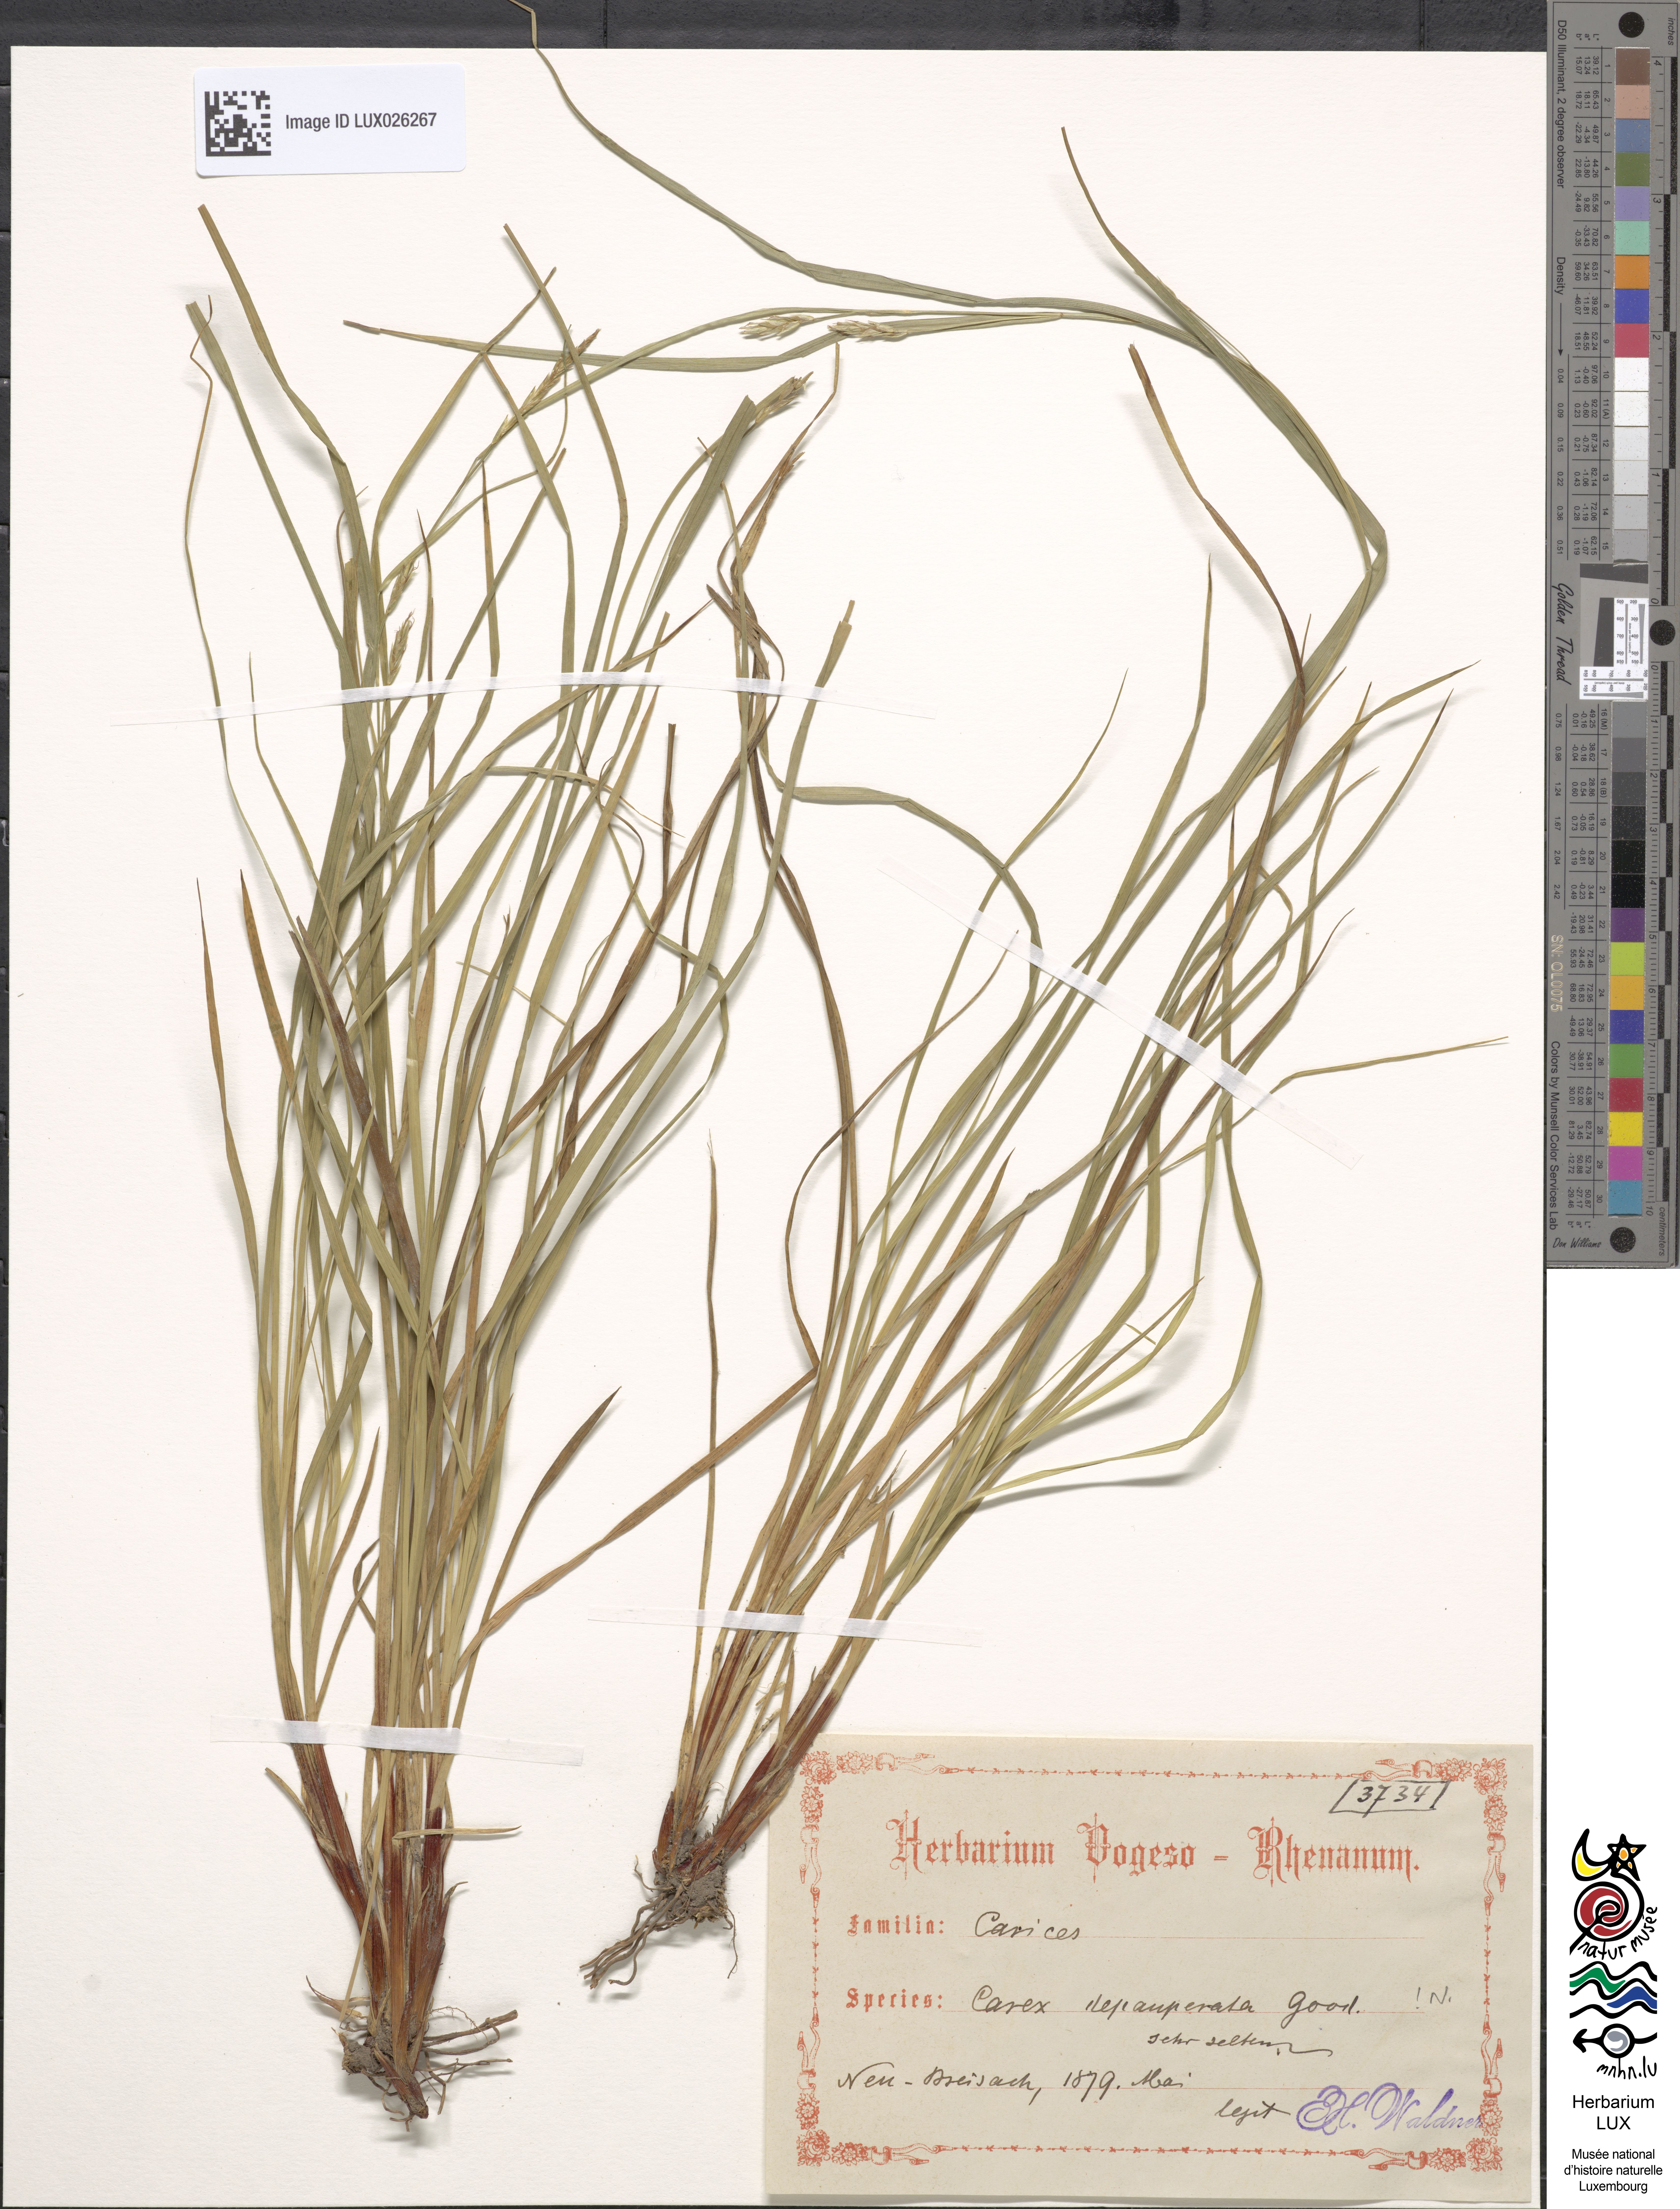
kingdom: Plantae
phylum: Tracheophyta
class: Liliopsida
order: Poales
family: Cyperaceae
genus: Carex
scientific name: Carex depauperata
